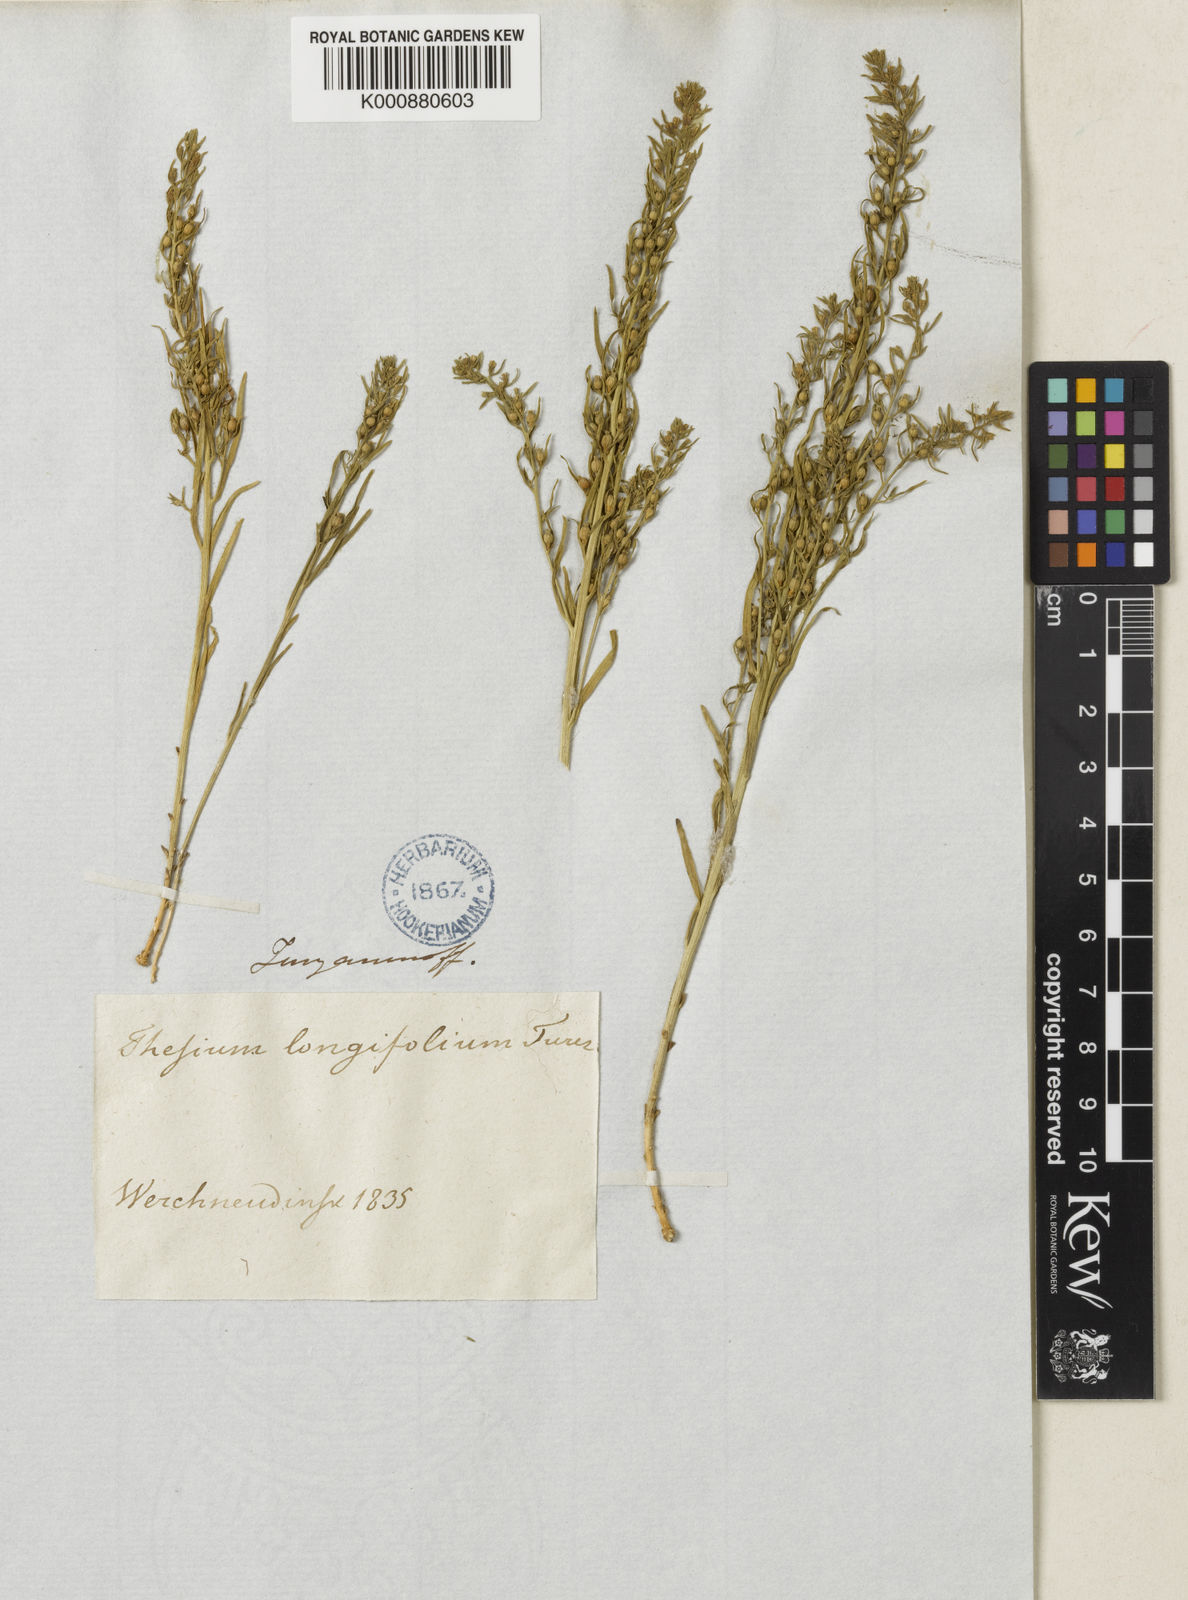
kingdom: Plantae
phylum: Tracheophyta
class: Magnoliopsida
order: Santalales
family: Thesiaceae
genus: Thesium
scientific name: Thesium longifolium
